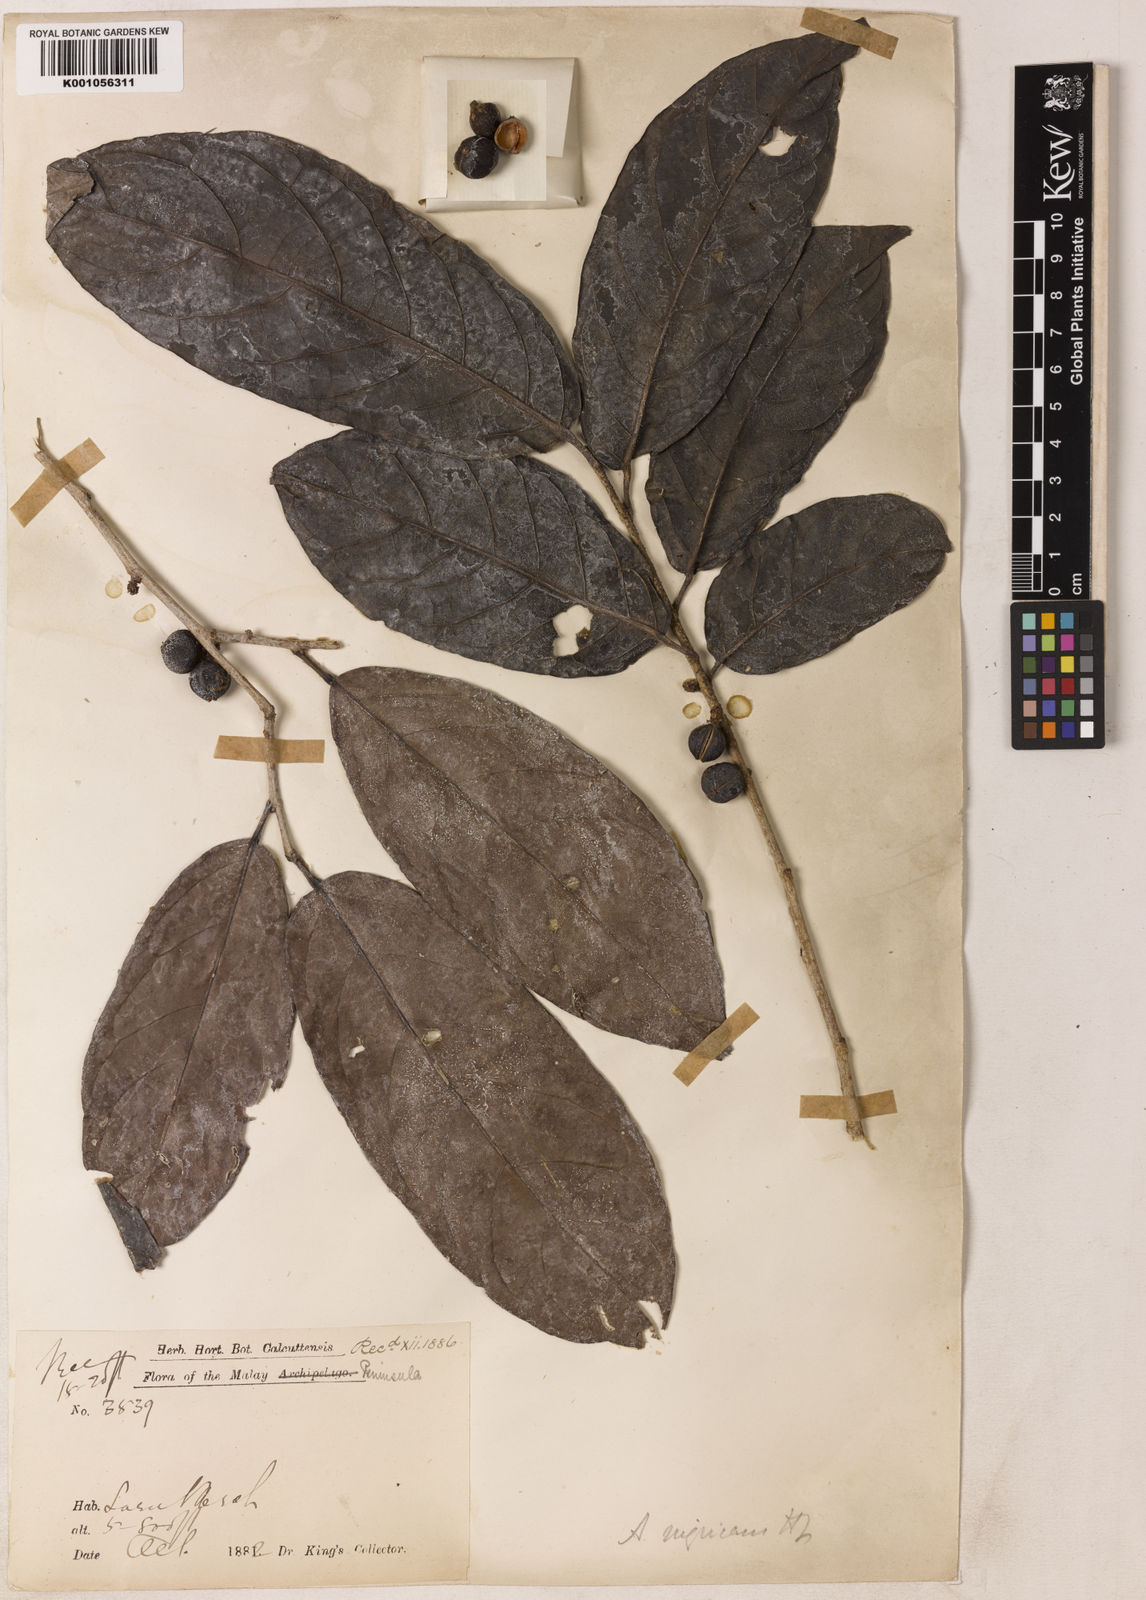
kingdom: Plantae
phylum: Tracheophyta
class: Magnoliopsida
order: Malpighiales
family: Phyllanthaceae
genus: Aporosa
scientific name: Aporosa nigricans
